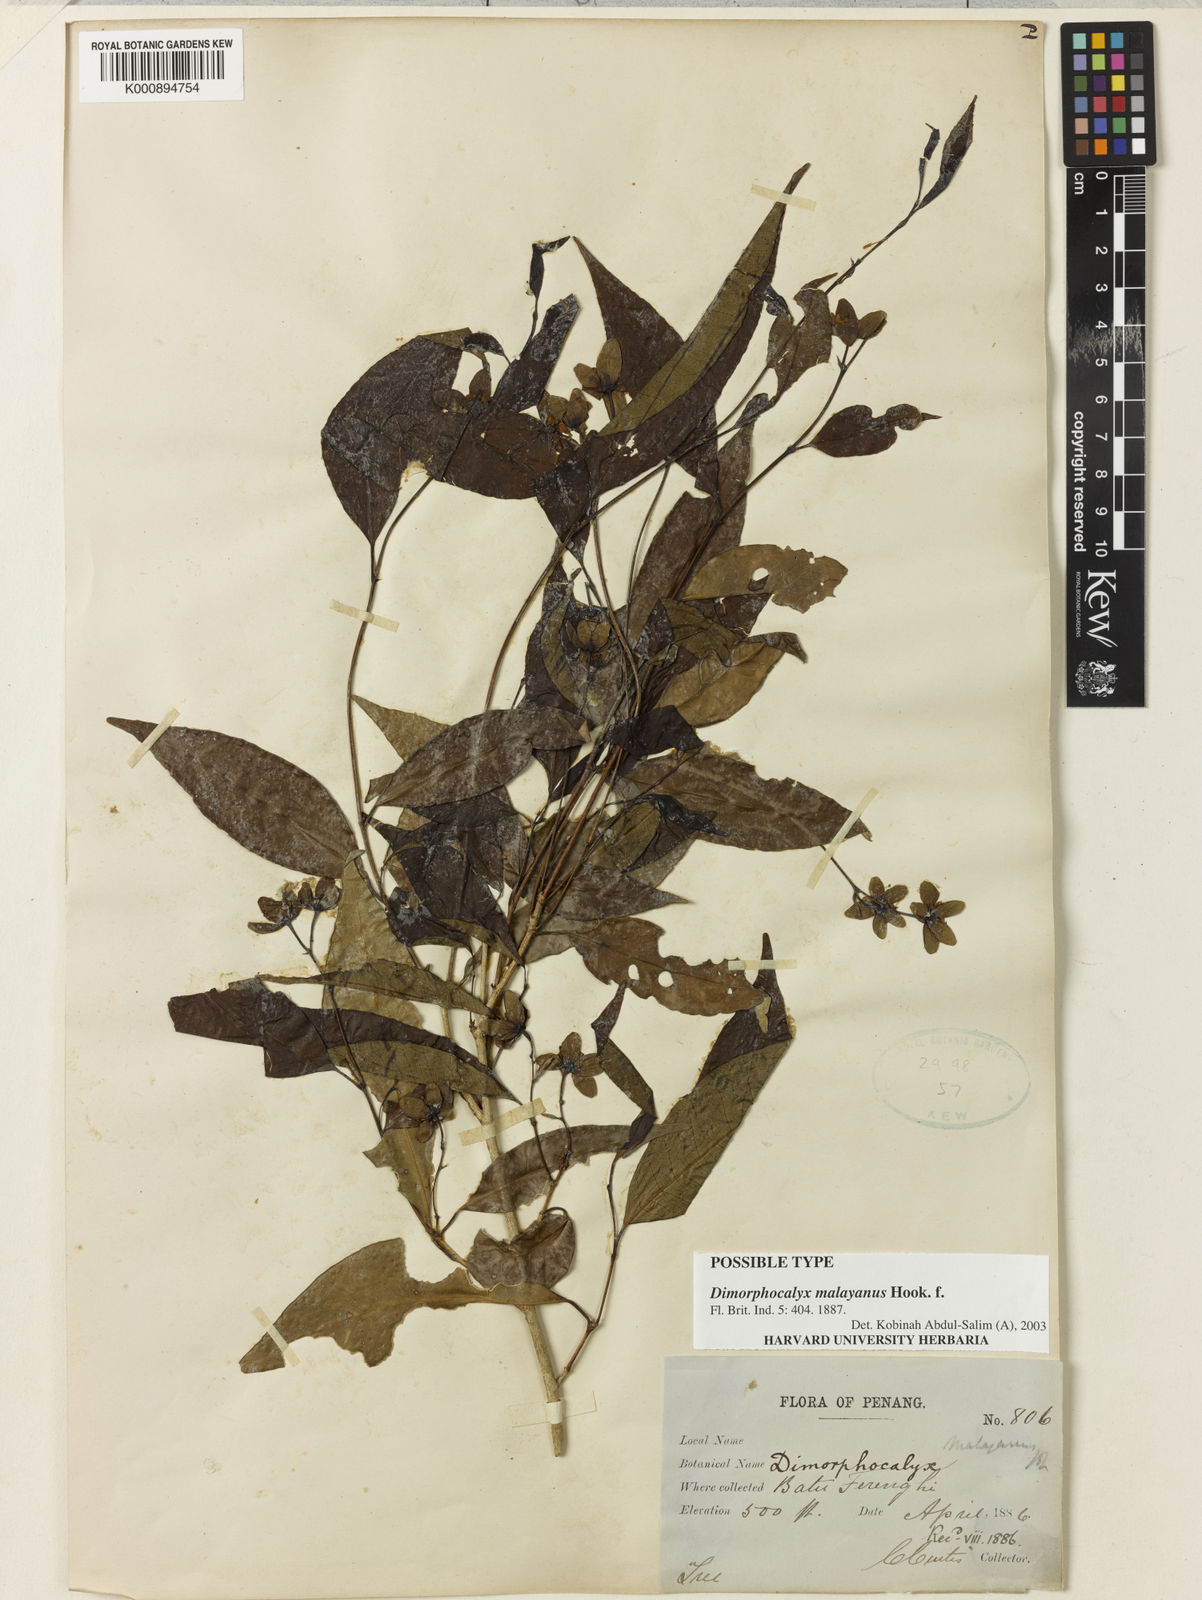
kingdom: Plantae
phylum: Tracheophyta
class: Magnoliopsida
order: Malpighiales
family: Euphorbiaceae
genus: Tritaxis
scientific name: Tritaxis malayana
